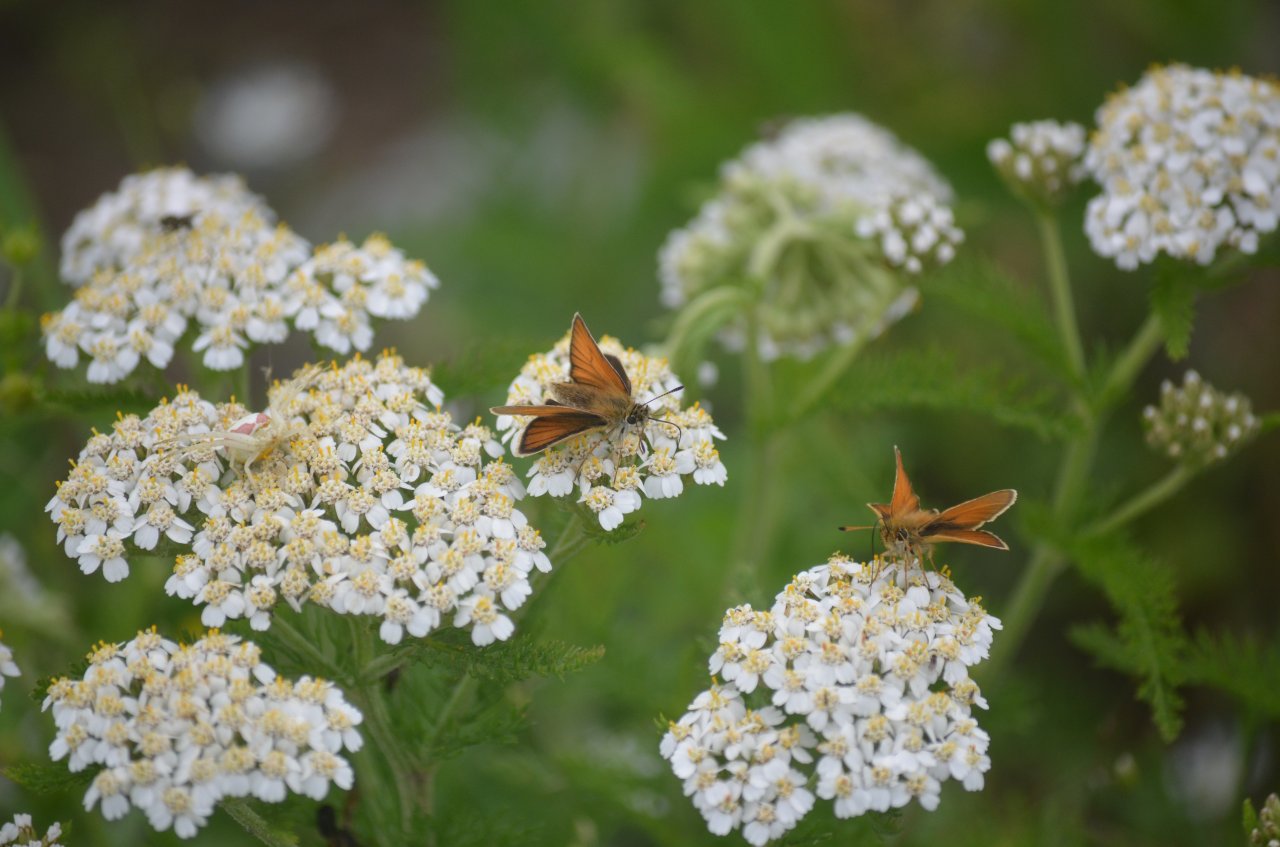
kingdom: Animalia
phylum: Arthropoda
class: Insecta
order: Lepidoptera
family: Hesperiidae
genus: Thymelicus
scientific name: Thymelicus lineola
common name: European Skipper
